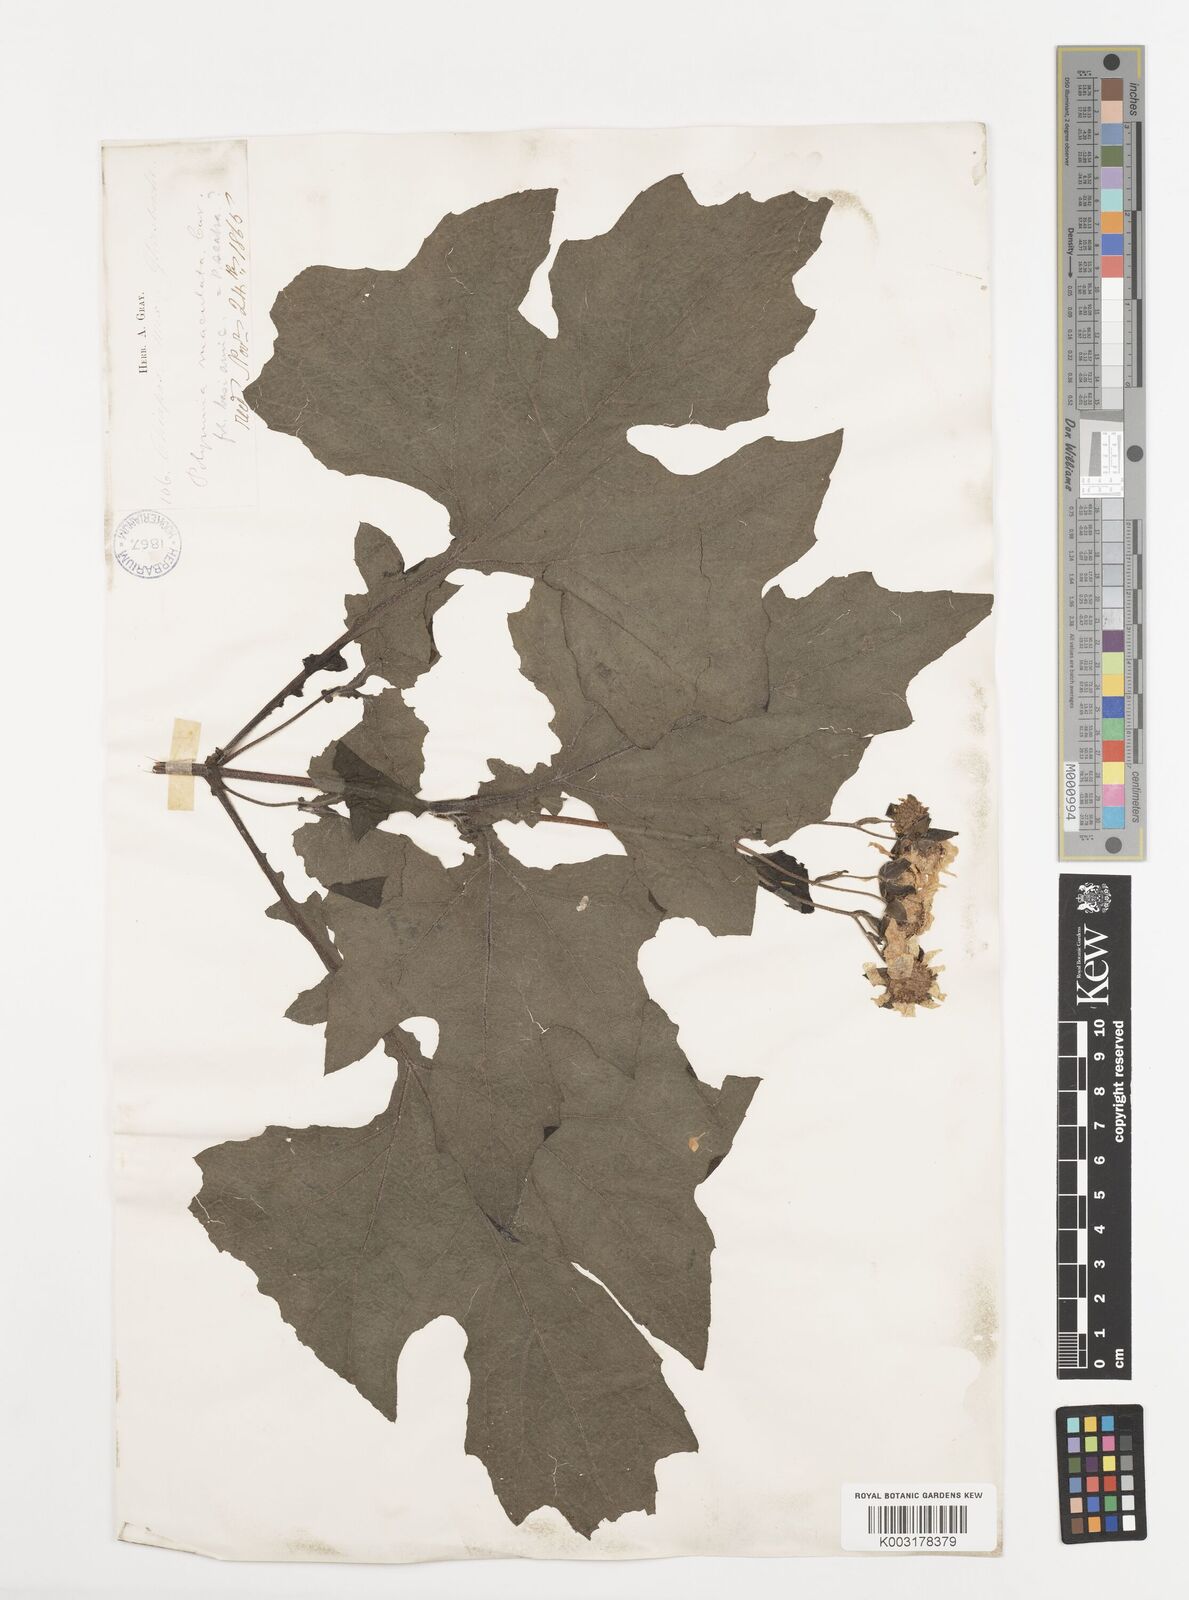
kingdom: Plantae
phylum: Tracheophyta
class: Magnoliopsida
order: Asterales
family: Asteraceae
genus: Smallanthus
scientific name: Smallanthus maculatus
